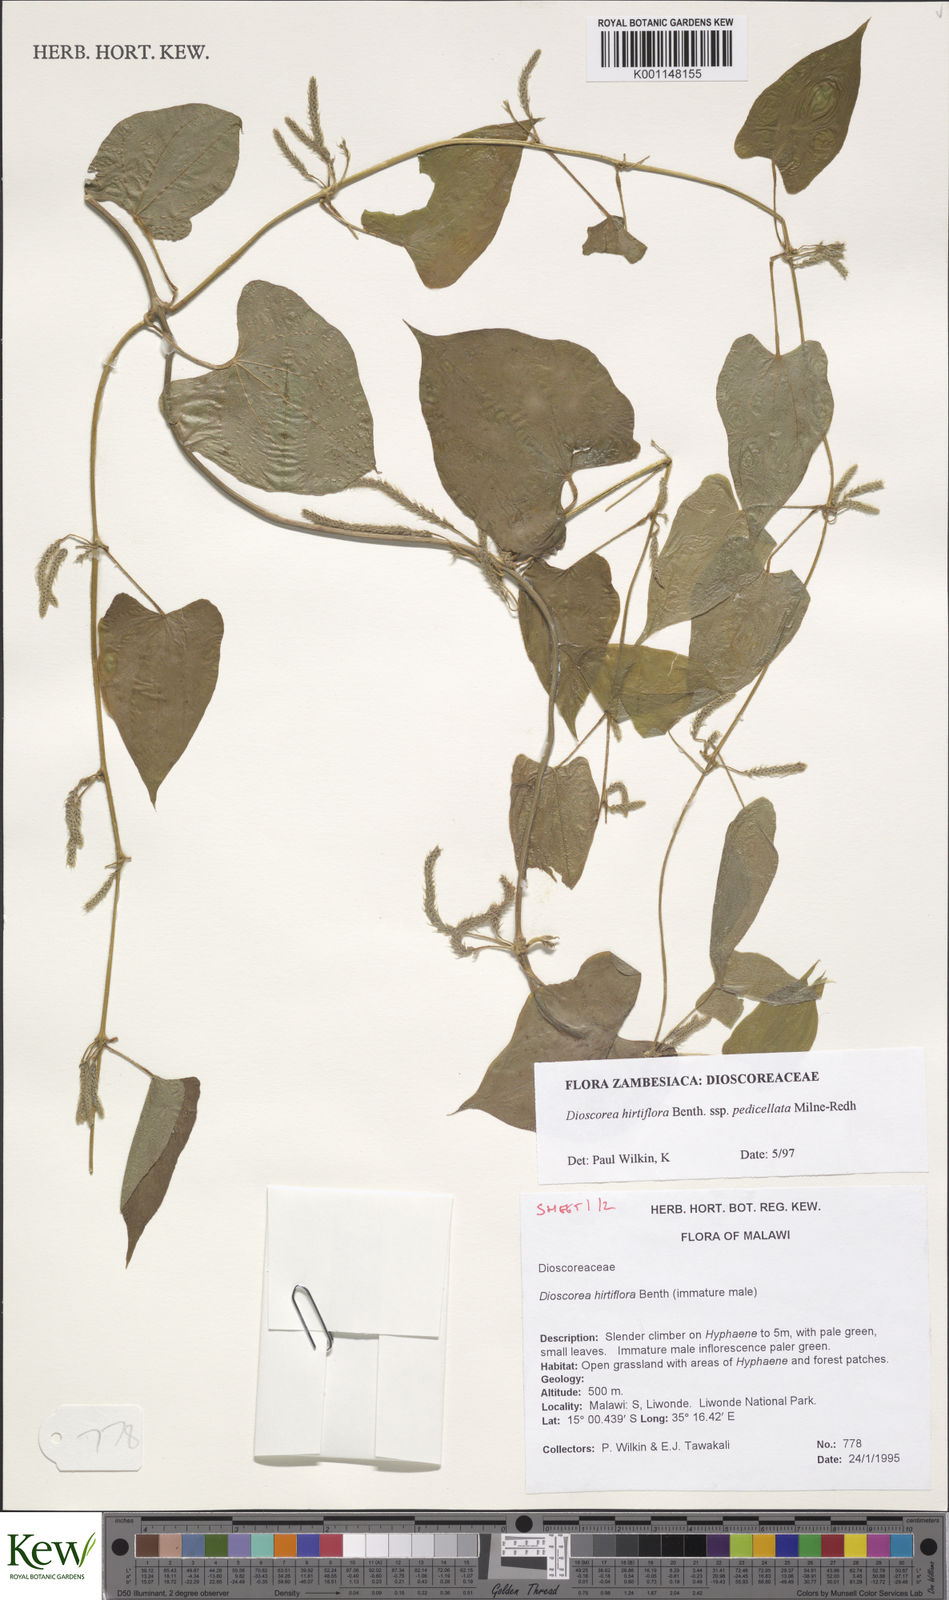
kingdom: Plantae
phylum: Tracheophyta
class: Liliopsida
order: Dioscoreales
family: Dioscoreaceae
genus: Dioscorea
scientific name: Dioscorea hirtiflora
